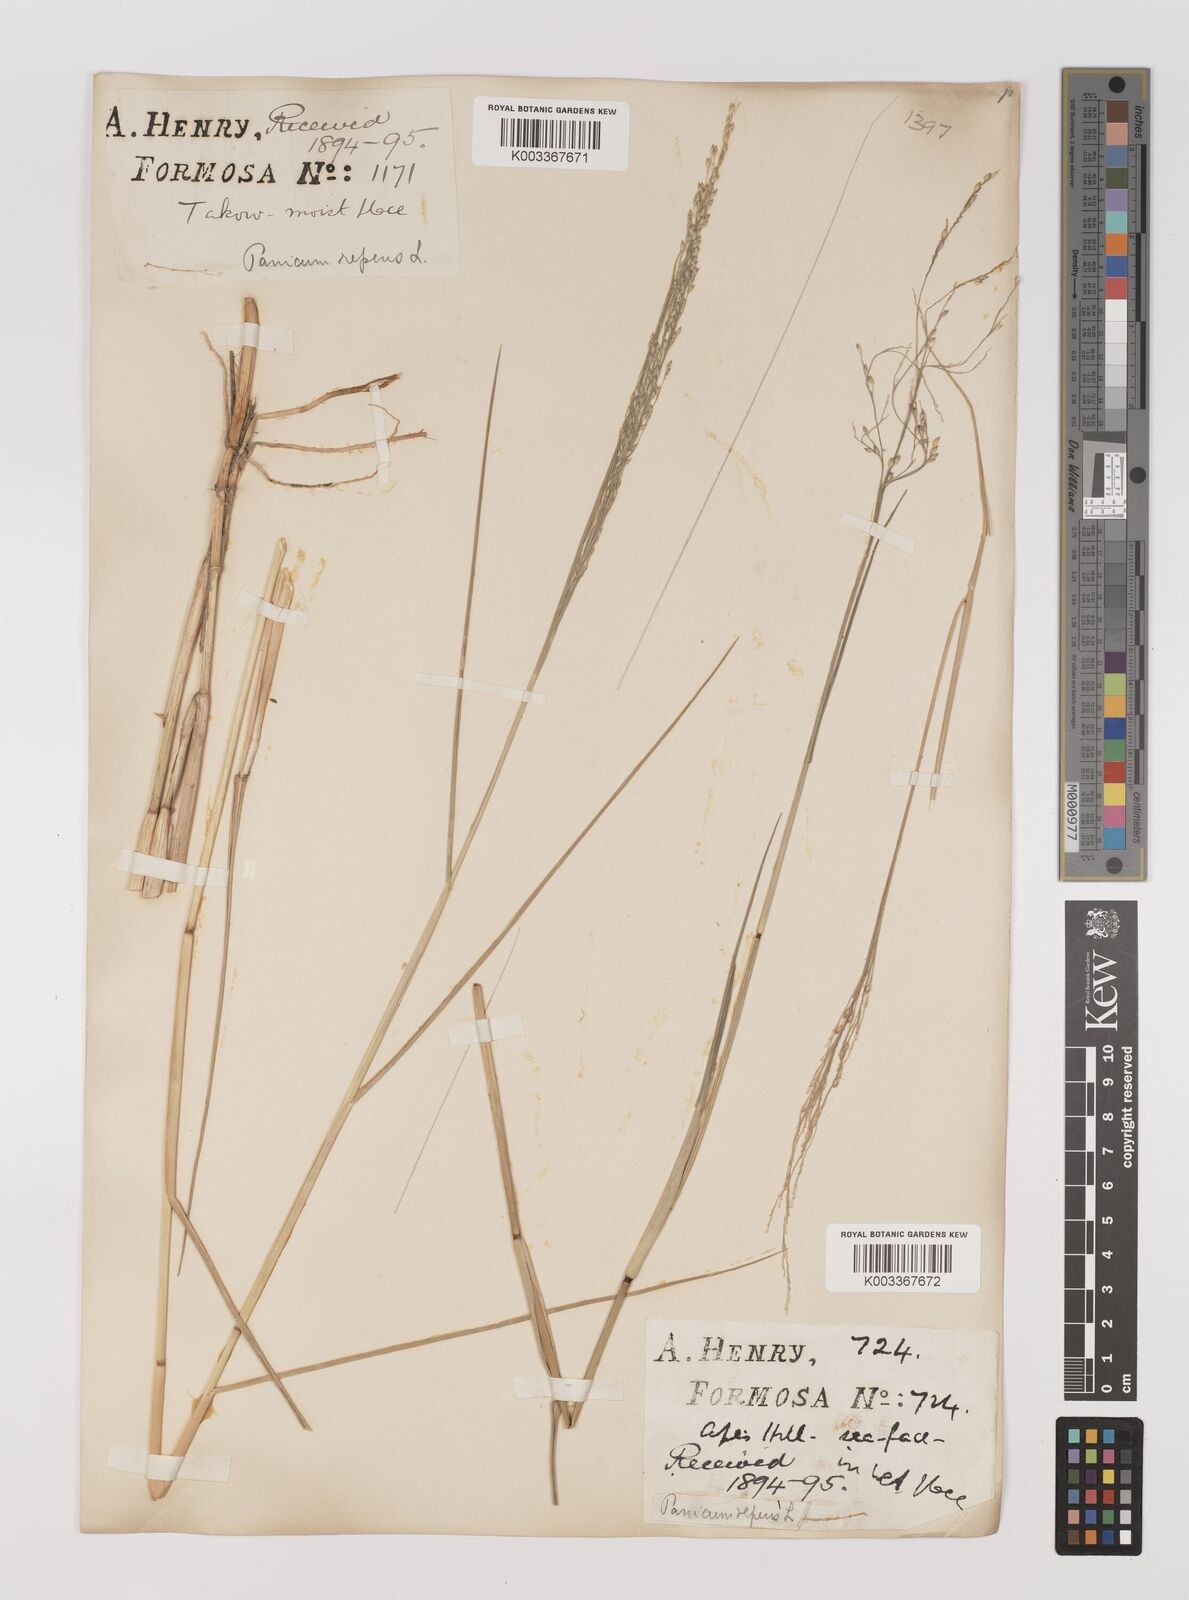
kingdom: Plantae
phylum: Tracheophyta
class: Liliopsida
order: Poales
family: Poaceae
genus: Panicum
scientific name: Panicum repens
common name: Torpedo grass
